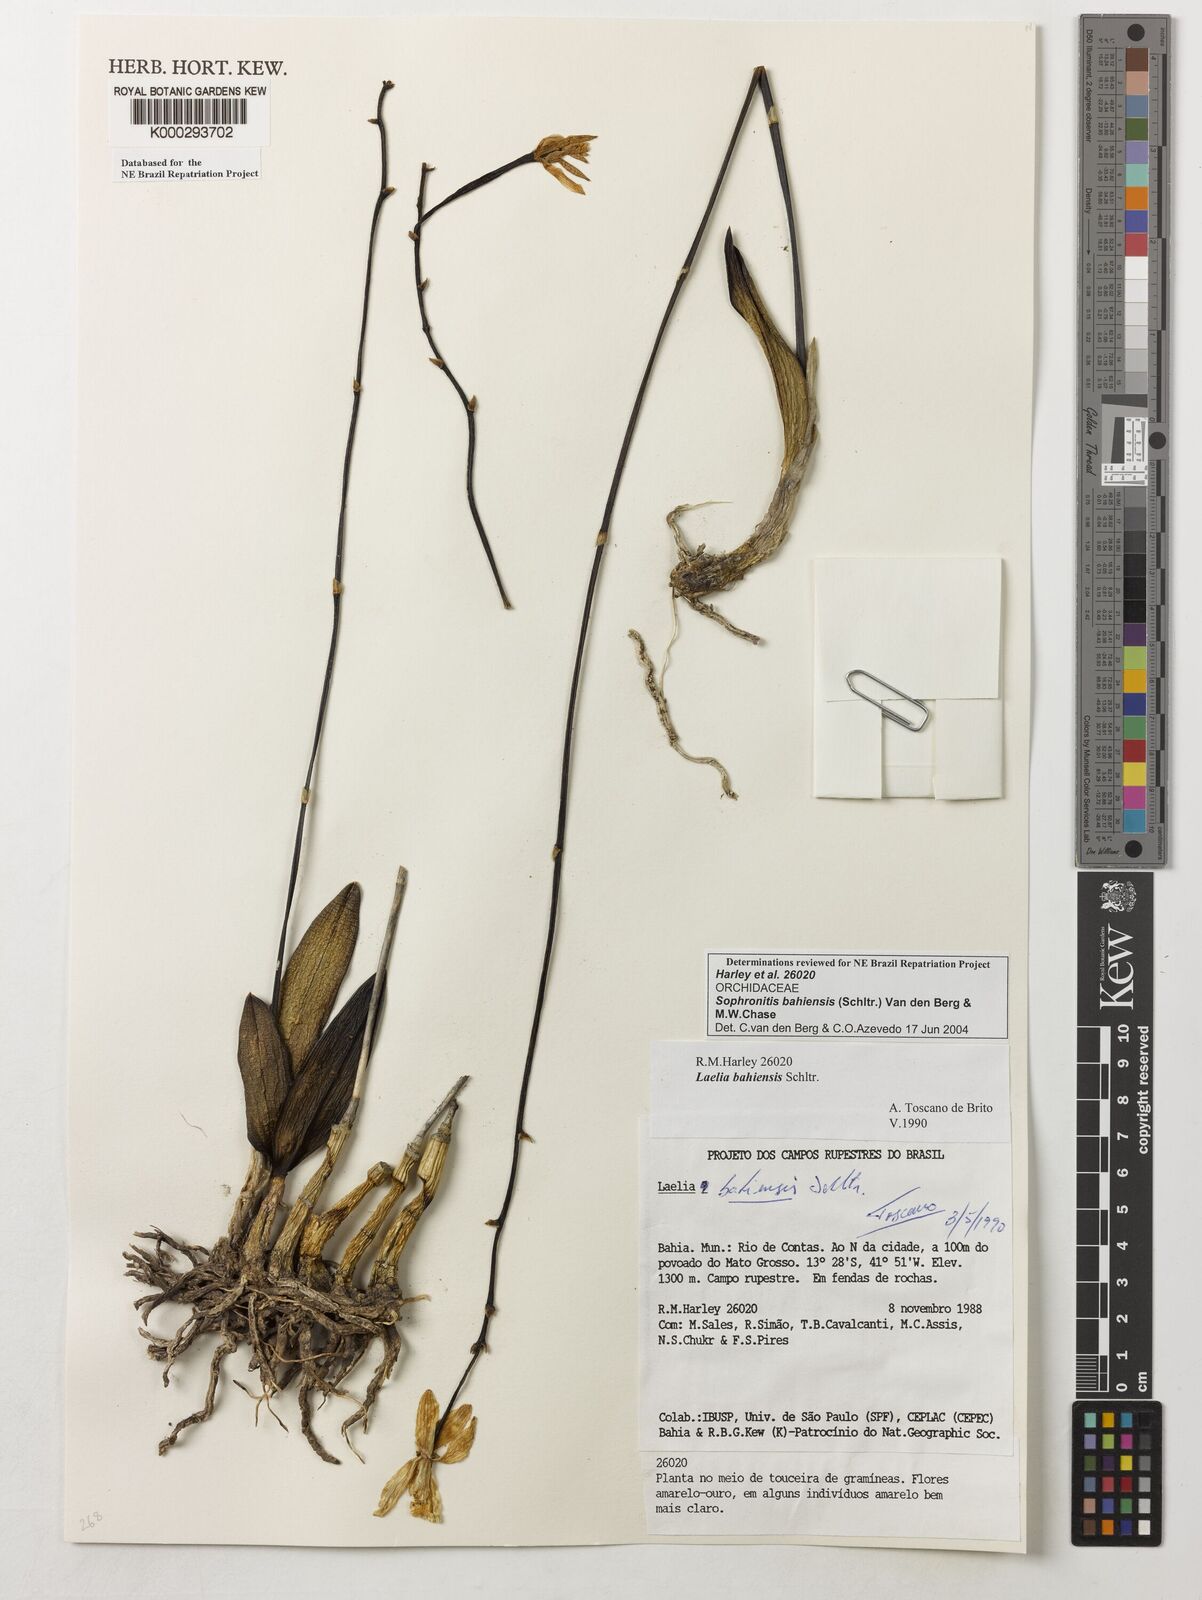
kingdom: Plantae
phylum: Tracheophyta
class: Liliopsida
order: Asparagales
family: Orchidaceae
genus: Cattleya
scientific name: Cattleya luetzelburgii
